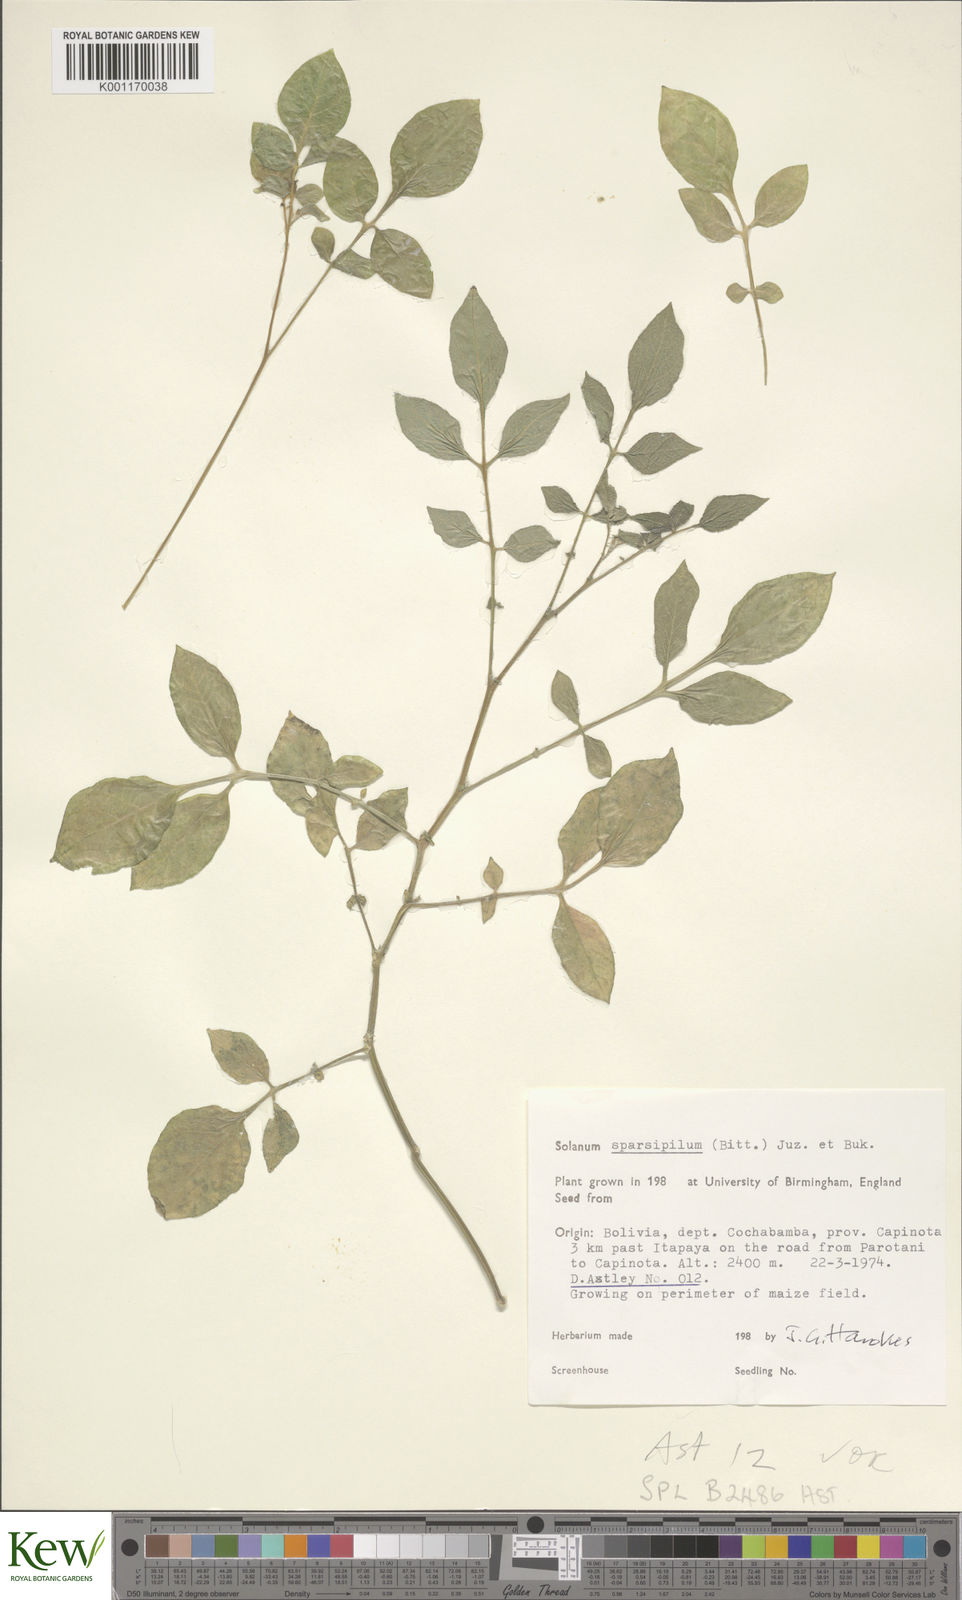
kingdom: Plantae
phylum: Tracheophyta
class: Magnoliopsida
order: Solanales
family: Solanaceae
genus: Solanum
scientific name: Solanum brevicaule
